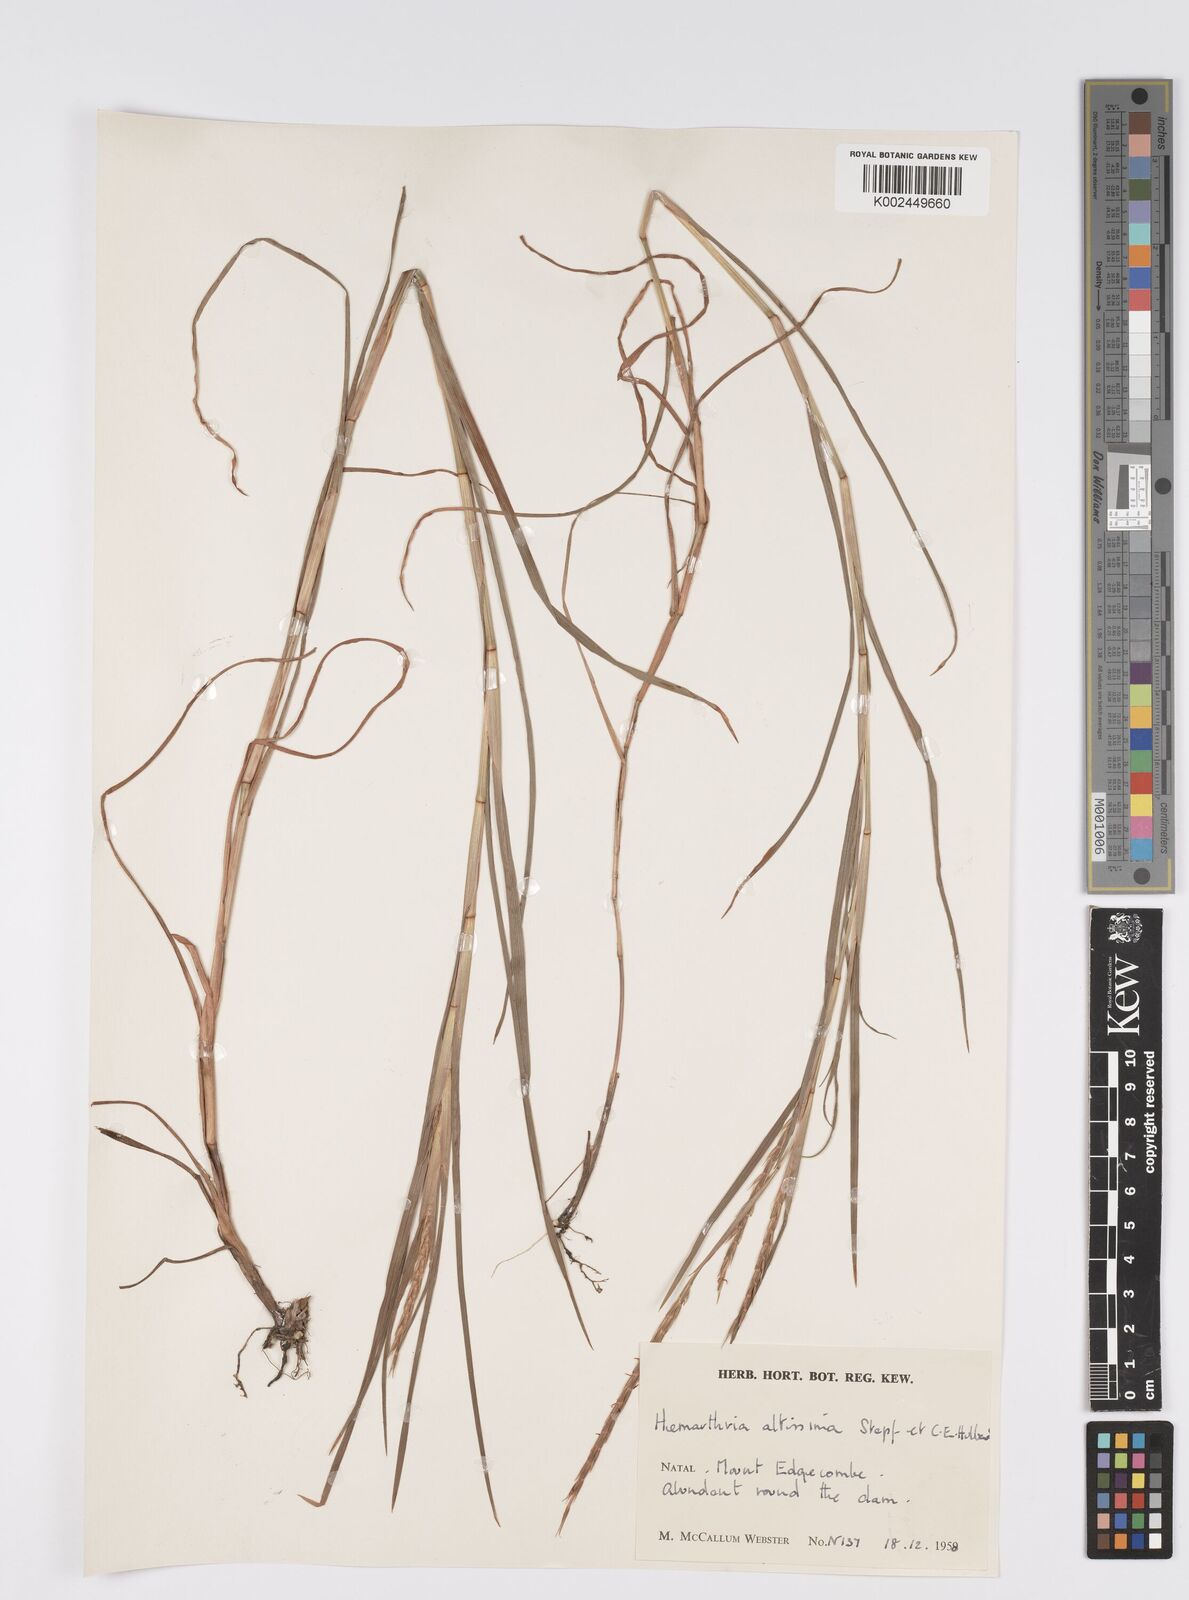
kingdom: Plantae
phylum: Tracheophyta
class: Liliopsida
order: Poales
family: Poaceae
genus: Hemarthria
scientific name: Hemarthria altissima
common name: African jointgrass
